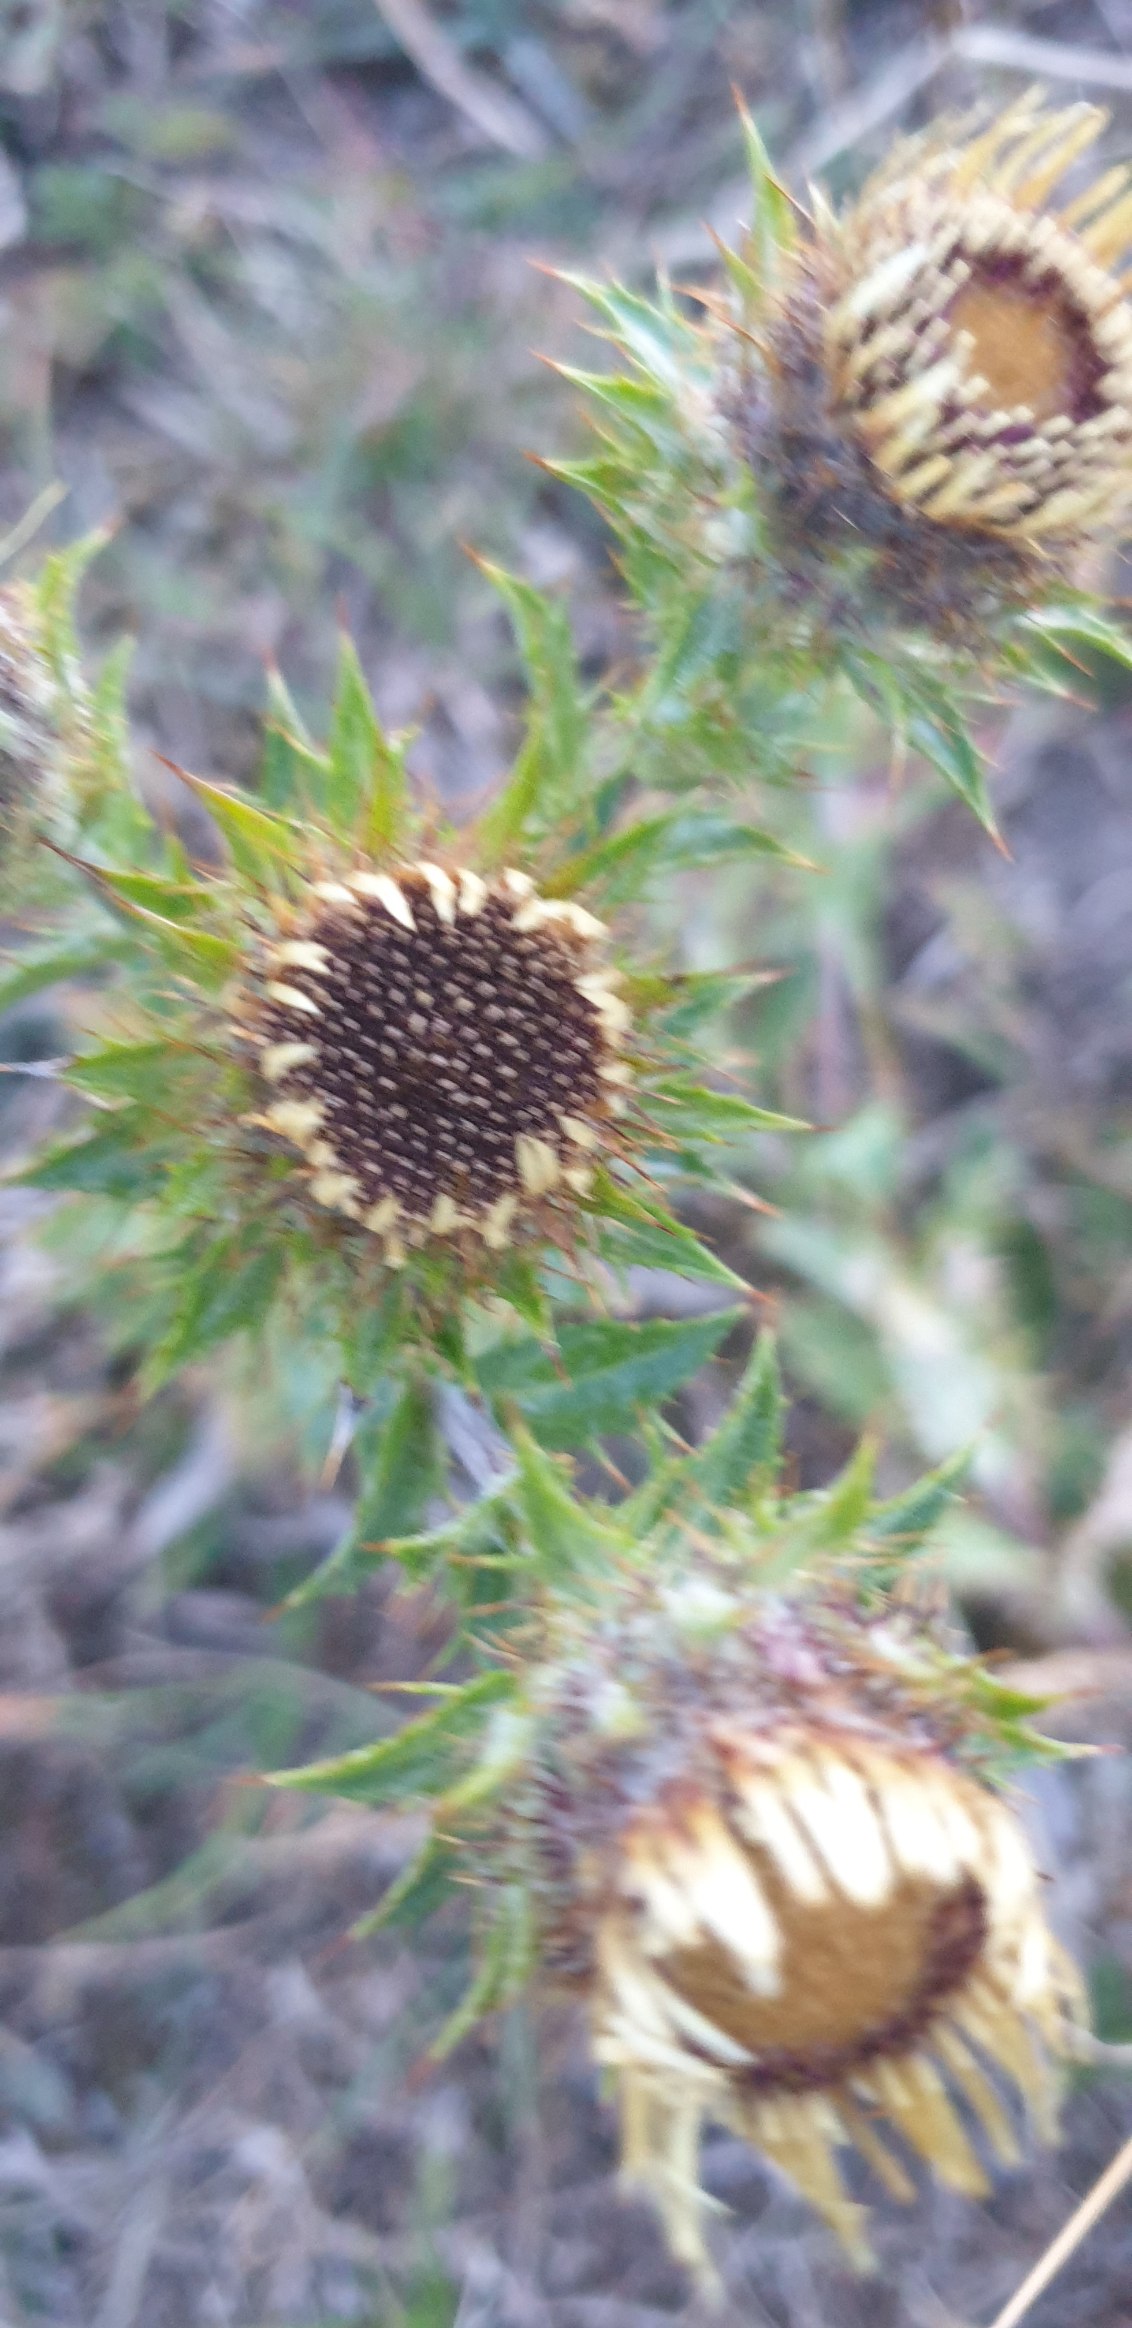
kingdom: Plantae
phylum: Tracheophyta
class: Magnoliopsida
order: Asterales
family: Asteraceae
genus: Carlina
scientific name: Carlina vulgaris
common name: Bakketidsel
